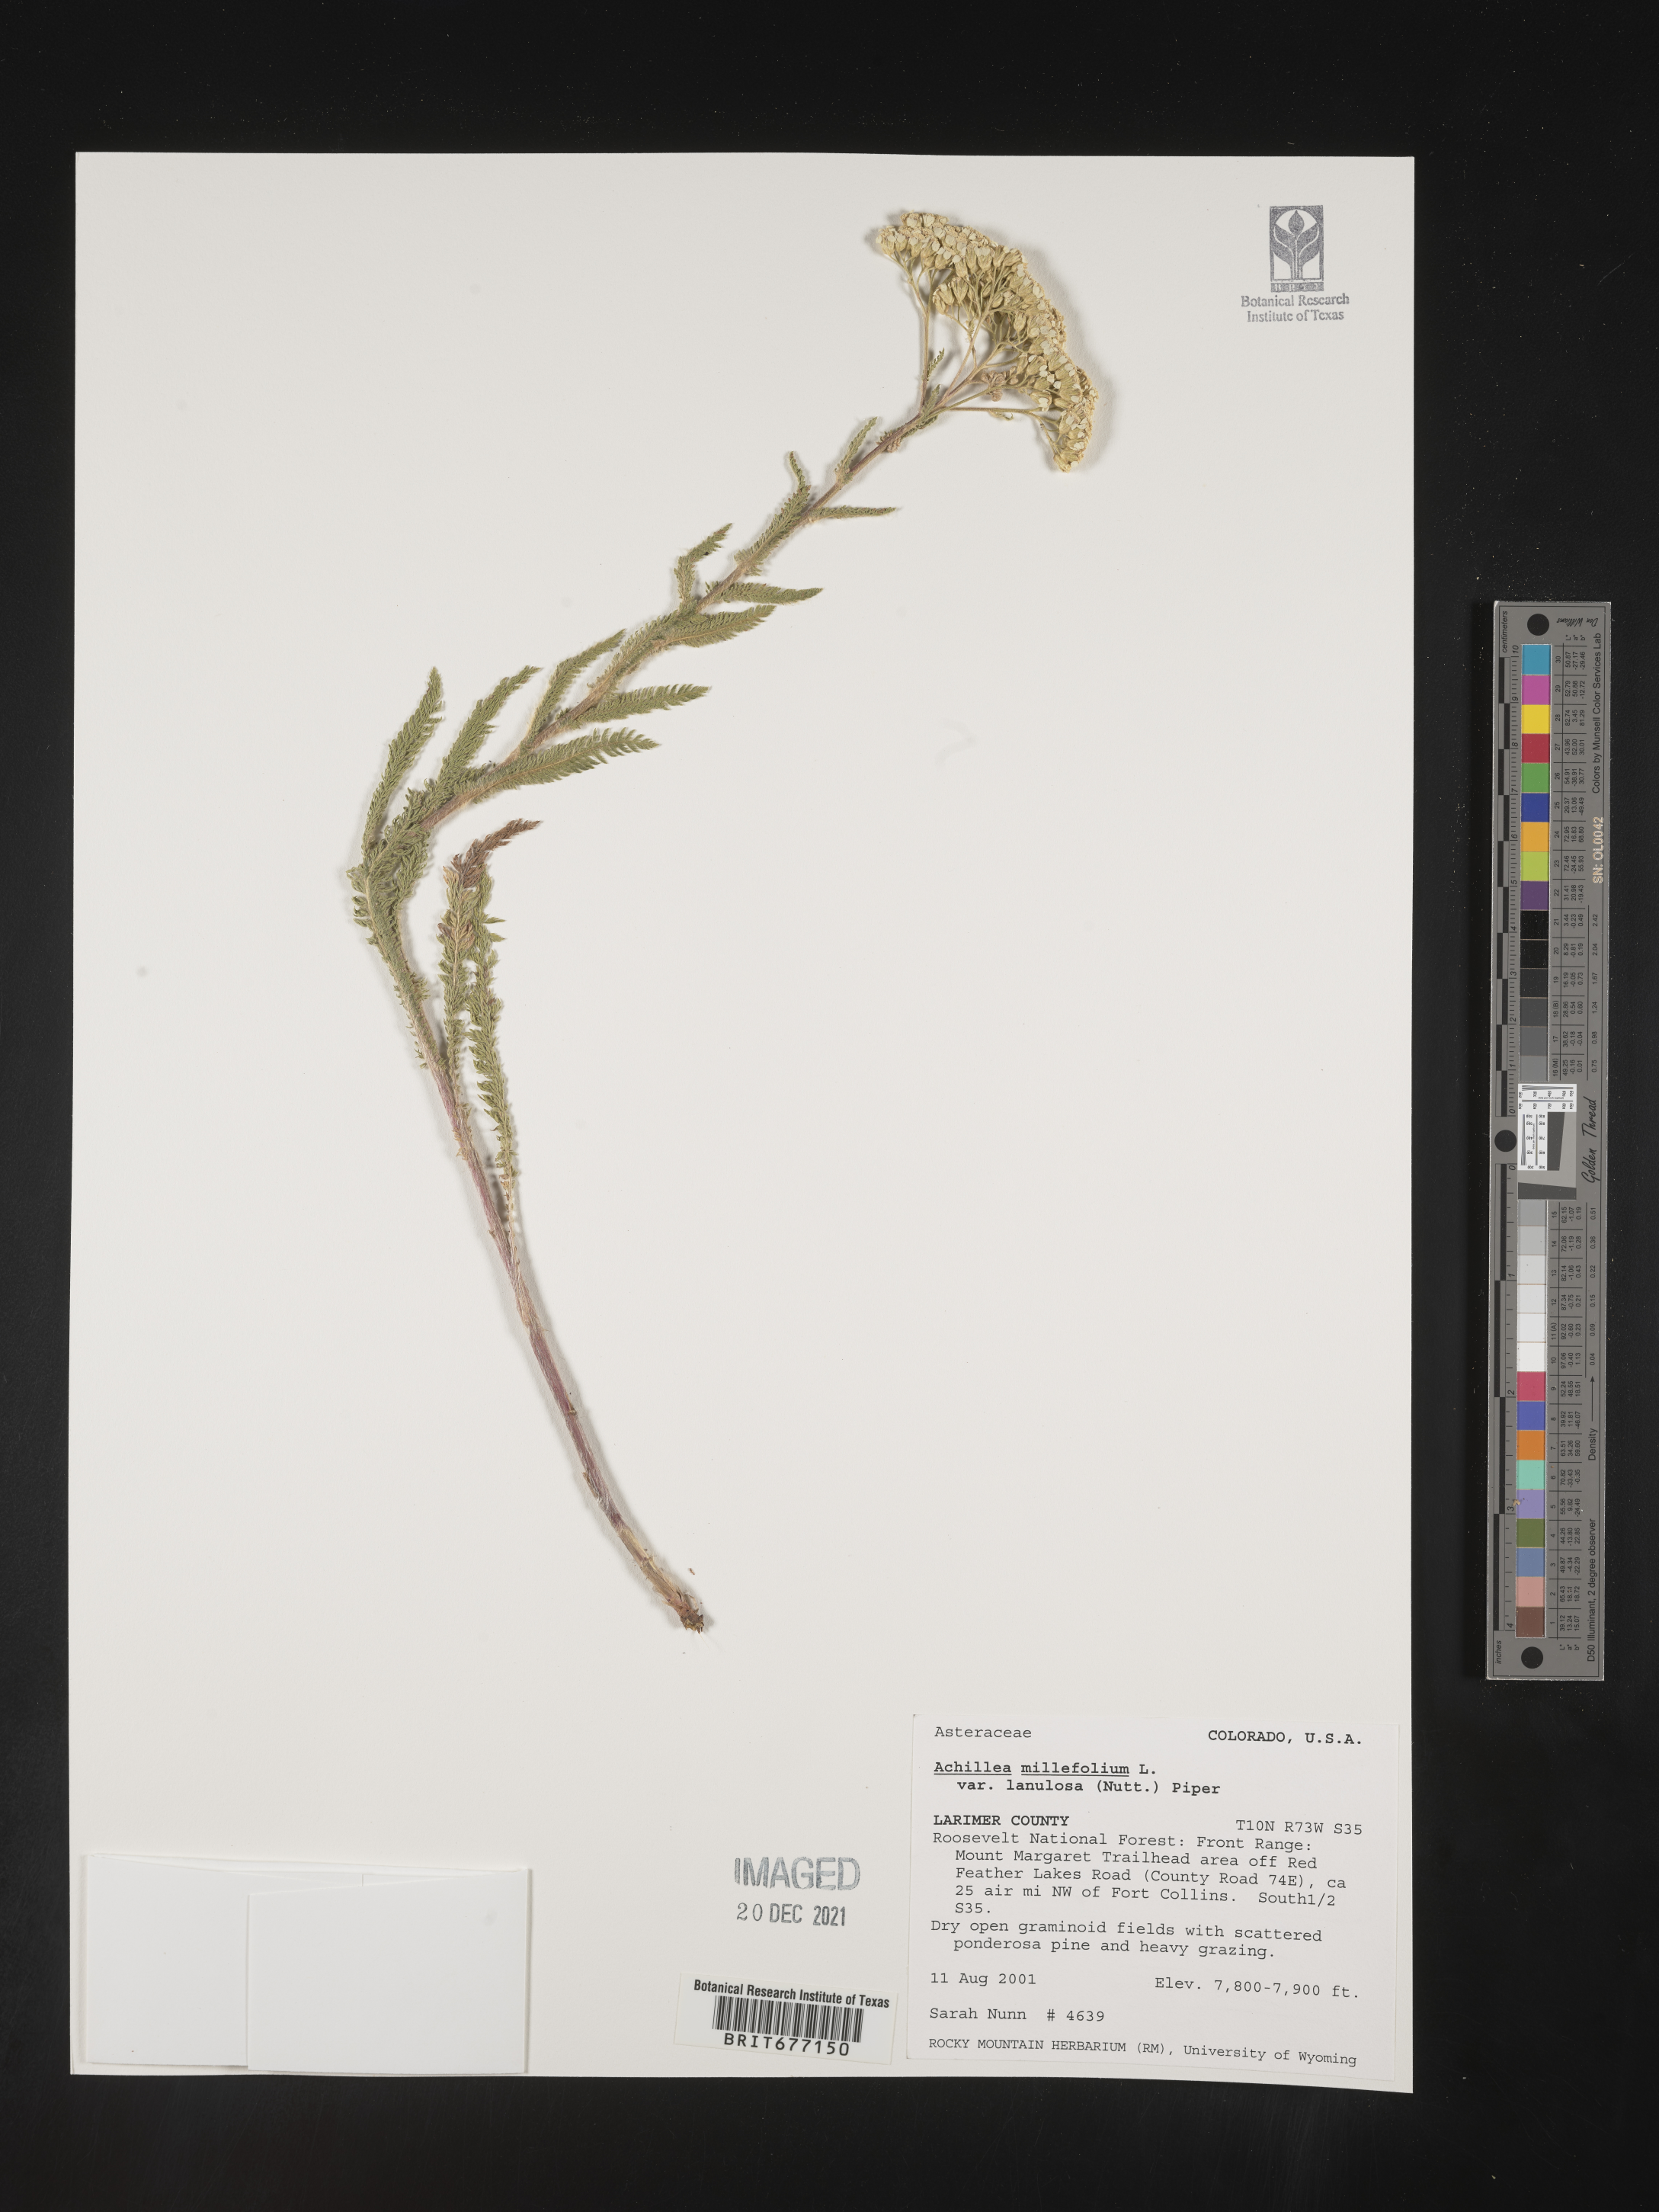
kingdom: Plantae
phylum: Tracheophyta
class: Magnoliopsida
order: Asterales
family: Asteraceae
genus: Achillea
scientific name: Achillea millefolium
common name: Yarrow
